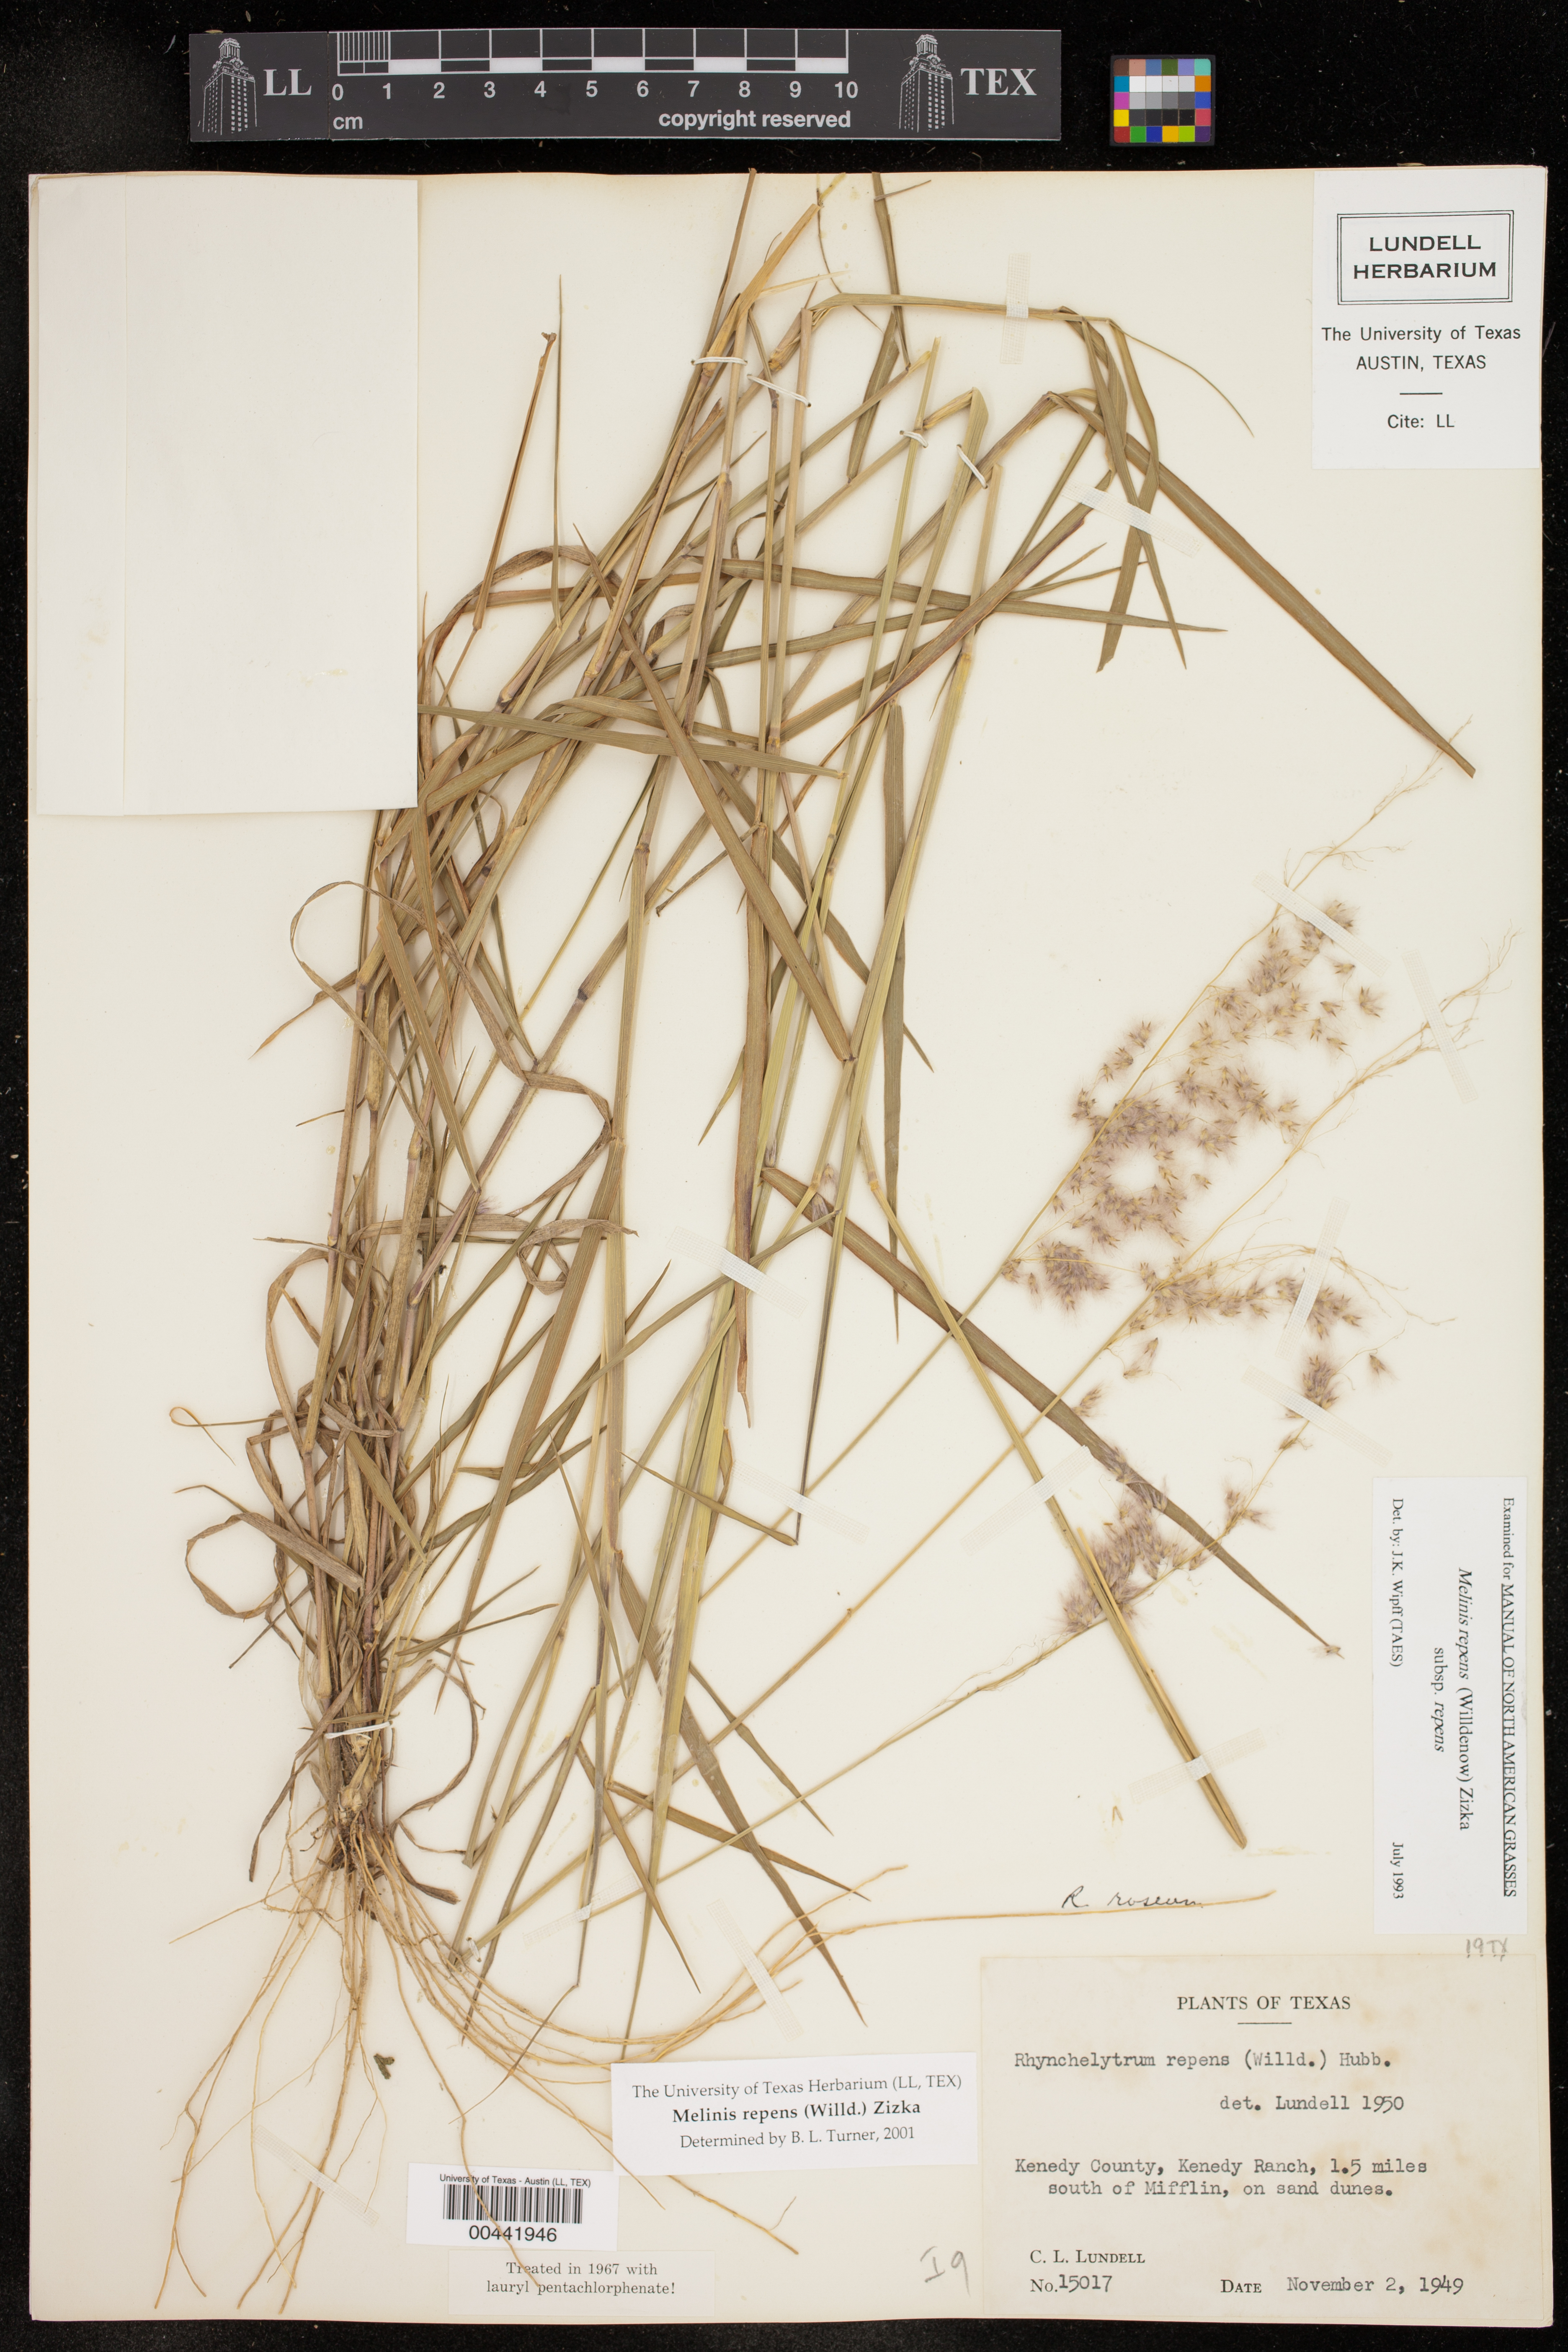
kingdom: Plantae
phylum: Tracheophyta
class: Liliopsida
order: Poales
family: Poaceae
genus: Melinis
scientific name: Melinis repens
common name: Rose natal grass
